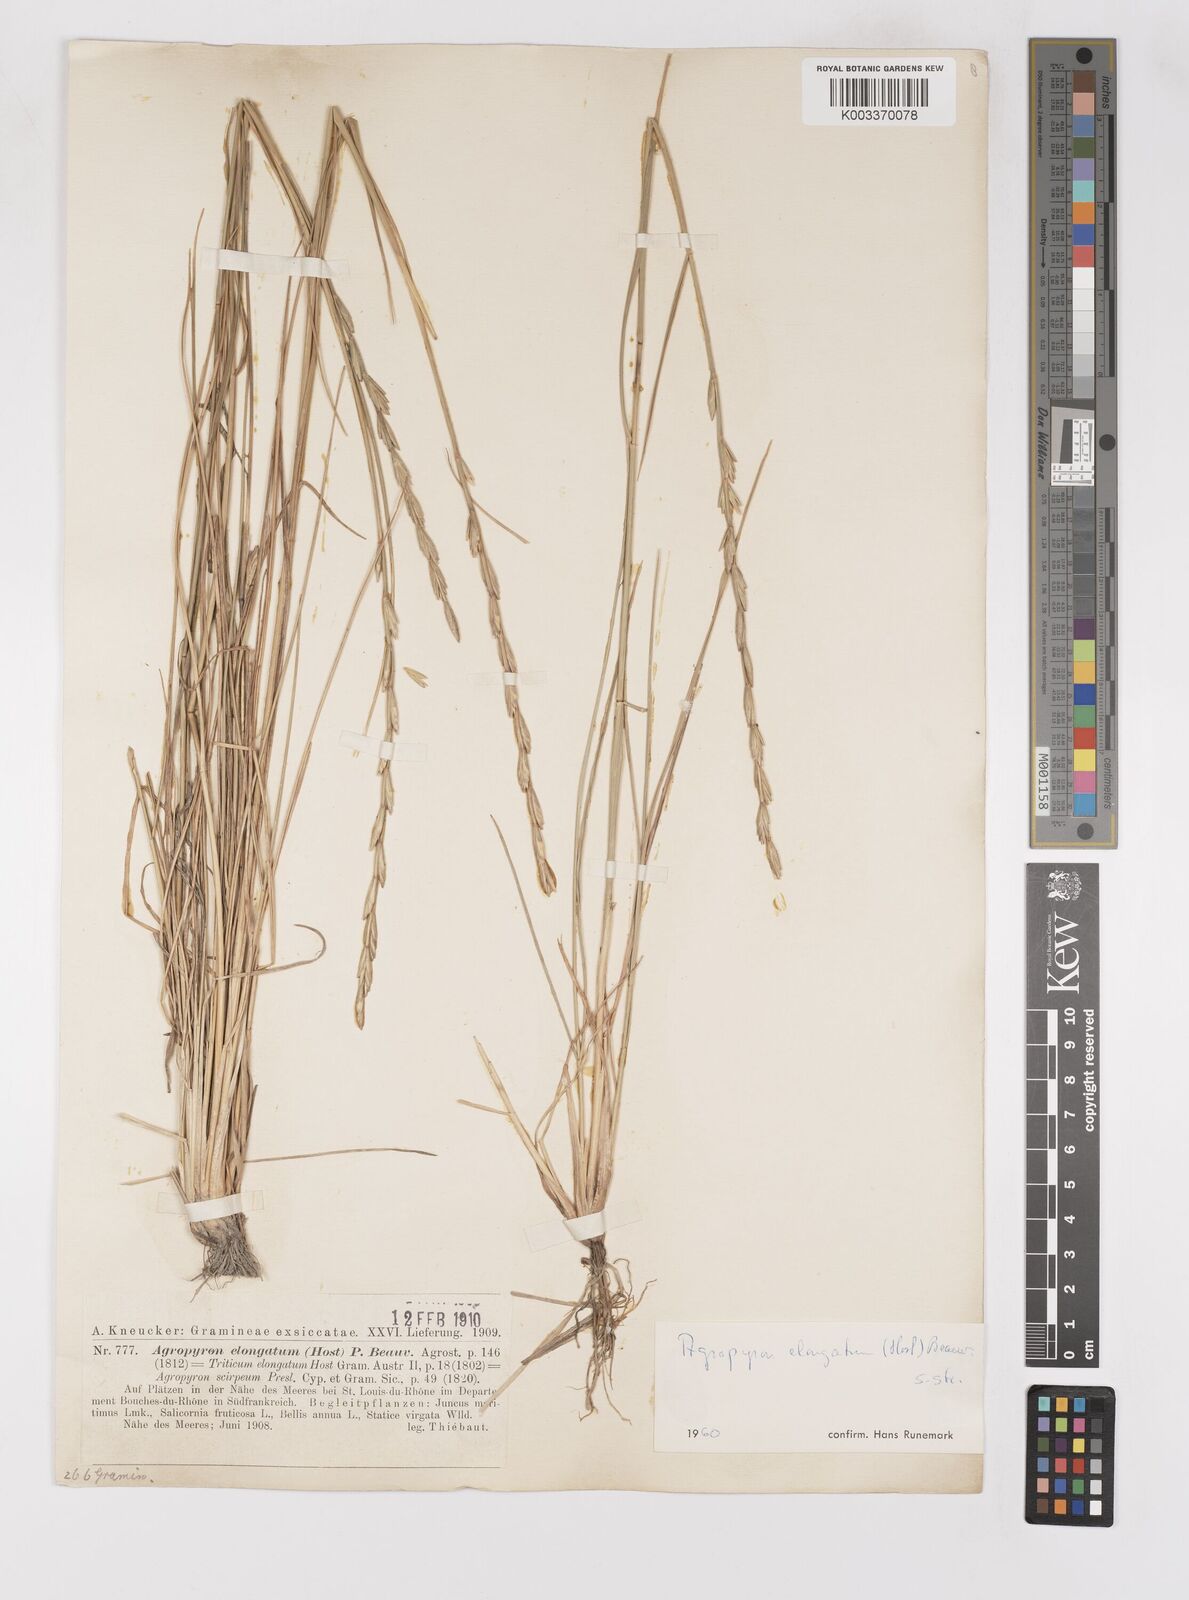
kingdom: Plantae
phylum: Tracheophyta
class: Liliopsida
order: Poales
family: Poaceae
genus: Thinopyrum
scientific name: Thinopyrum elongatum
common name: Tall wheatgrass
